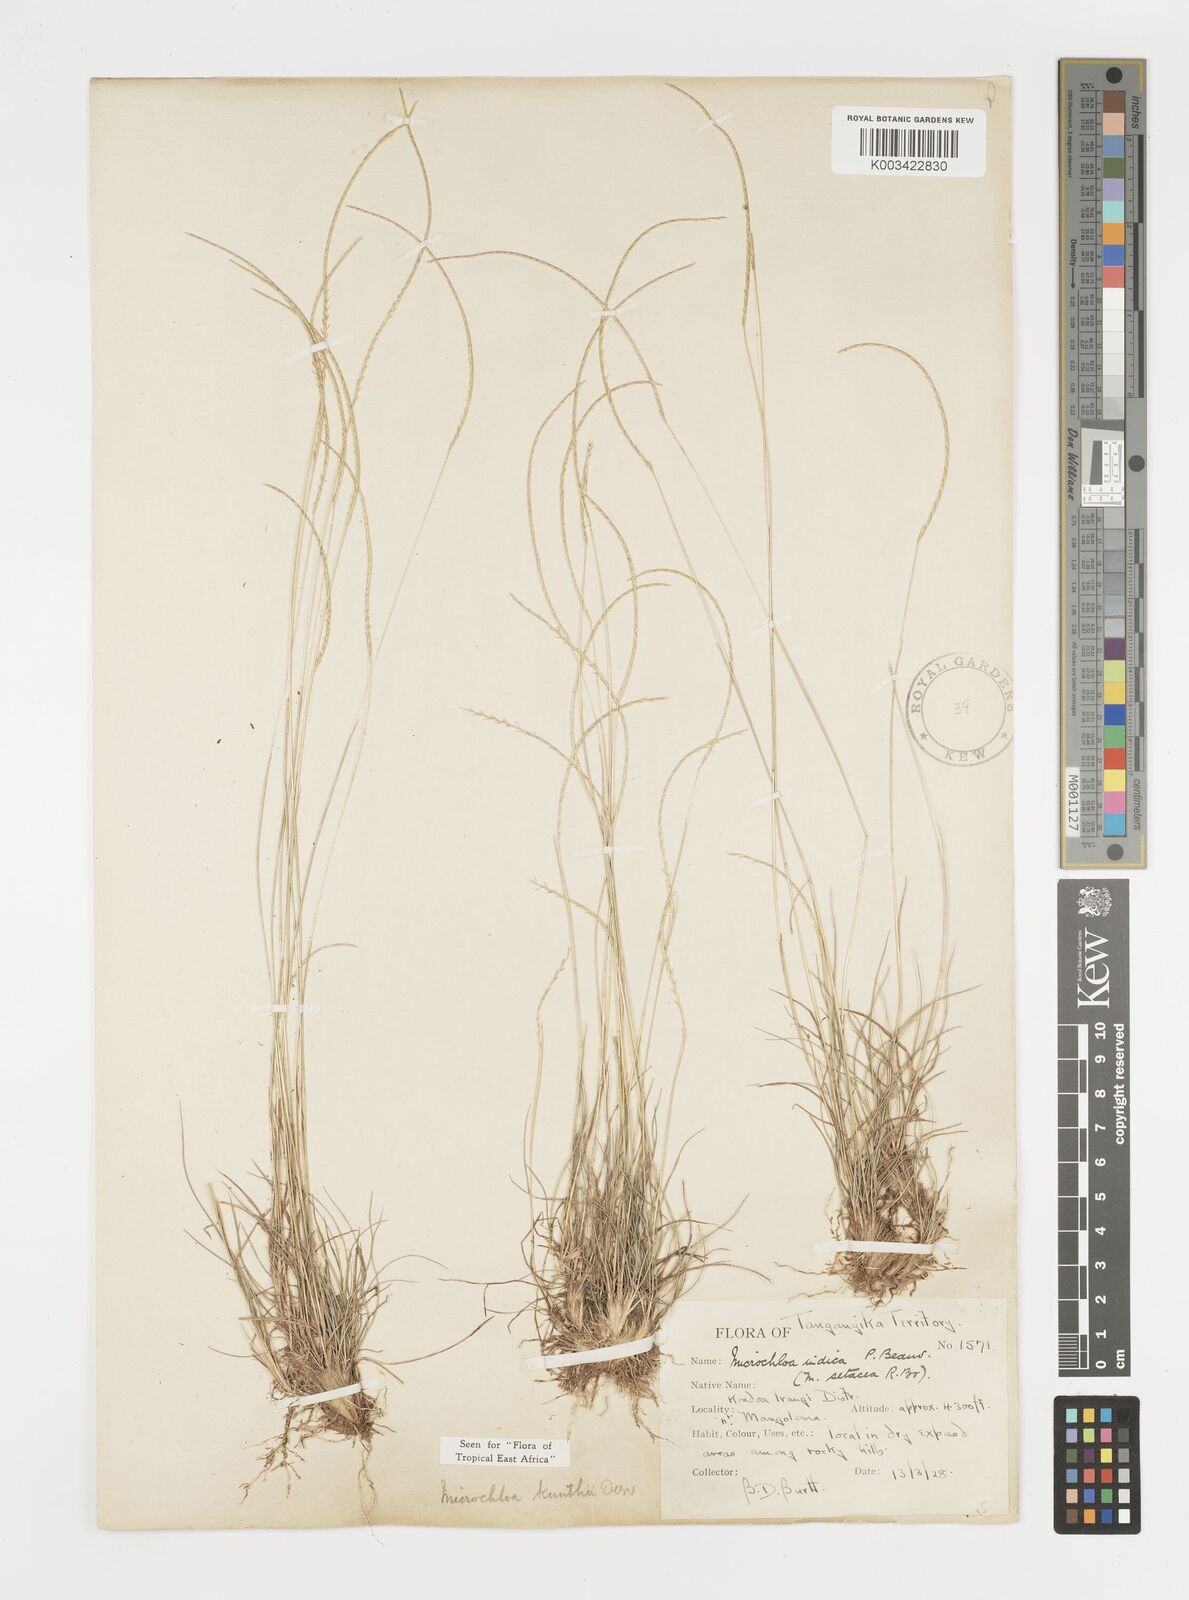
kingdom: Plantae
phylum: Tracheophyta
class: Liliopsida
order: Poales
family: Poaceae
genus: Microchloa
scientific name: Microchloa kunthii
